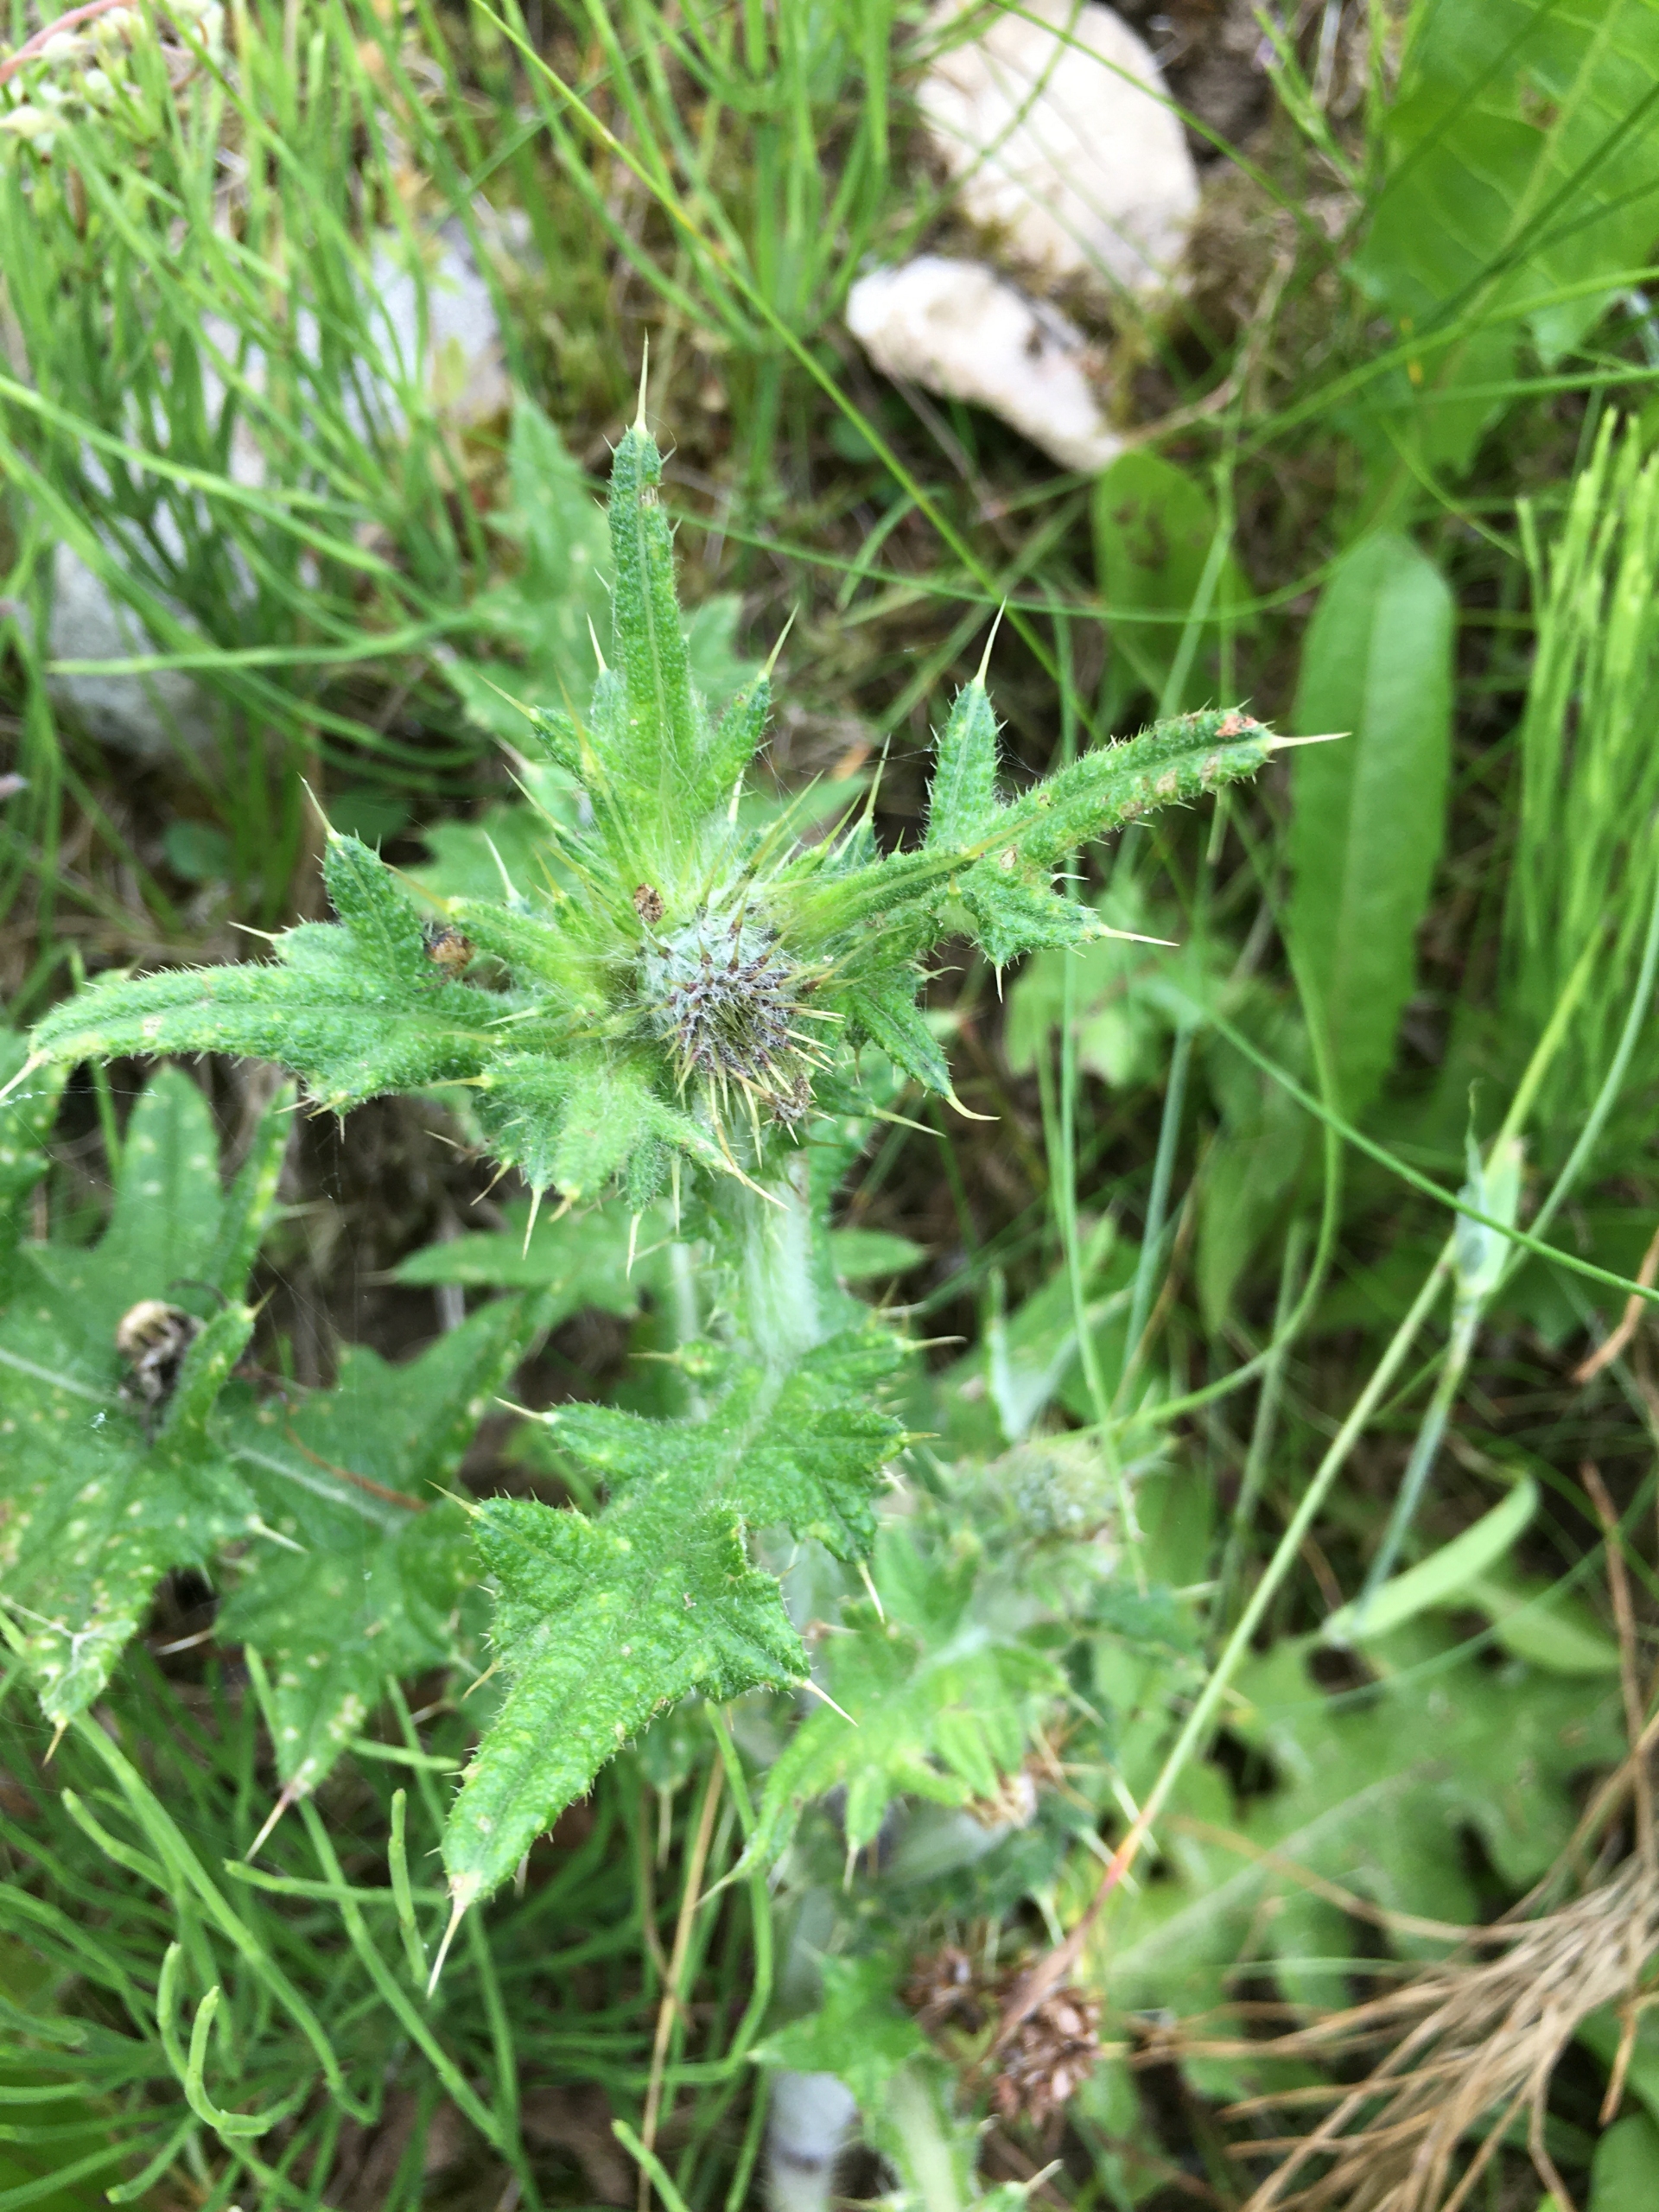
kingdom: Plantae
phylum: Tracheophyta
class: Magnoliopsida
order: Asterales
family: Asteraceae
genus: Cirsium
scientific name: Cirsium vulgare
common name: Horse-tidsel
